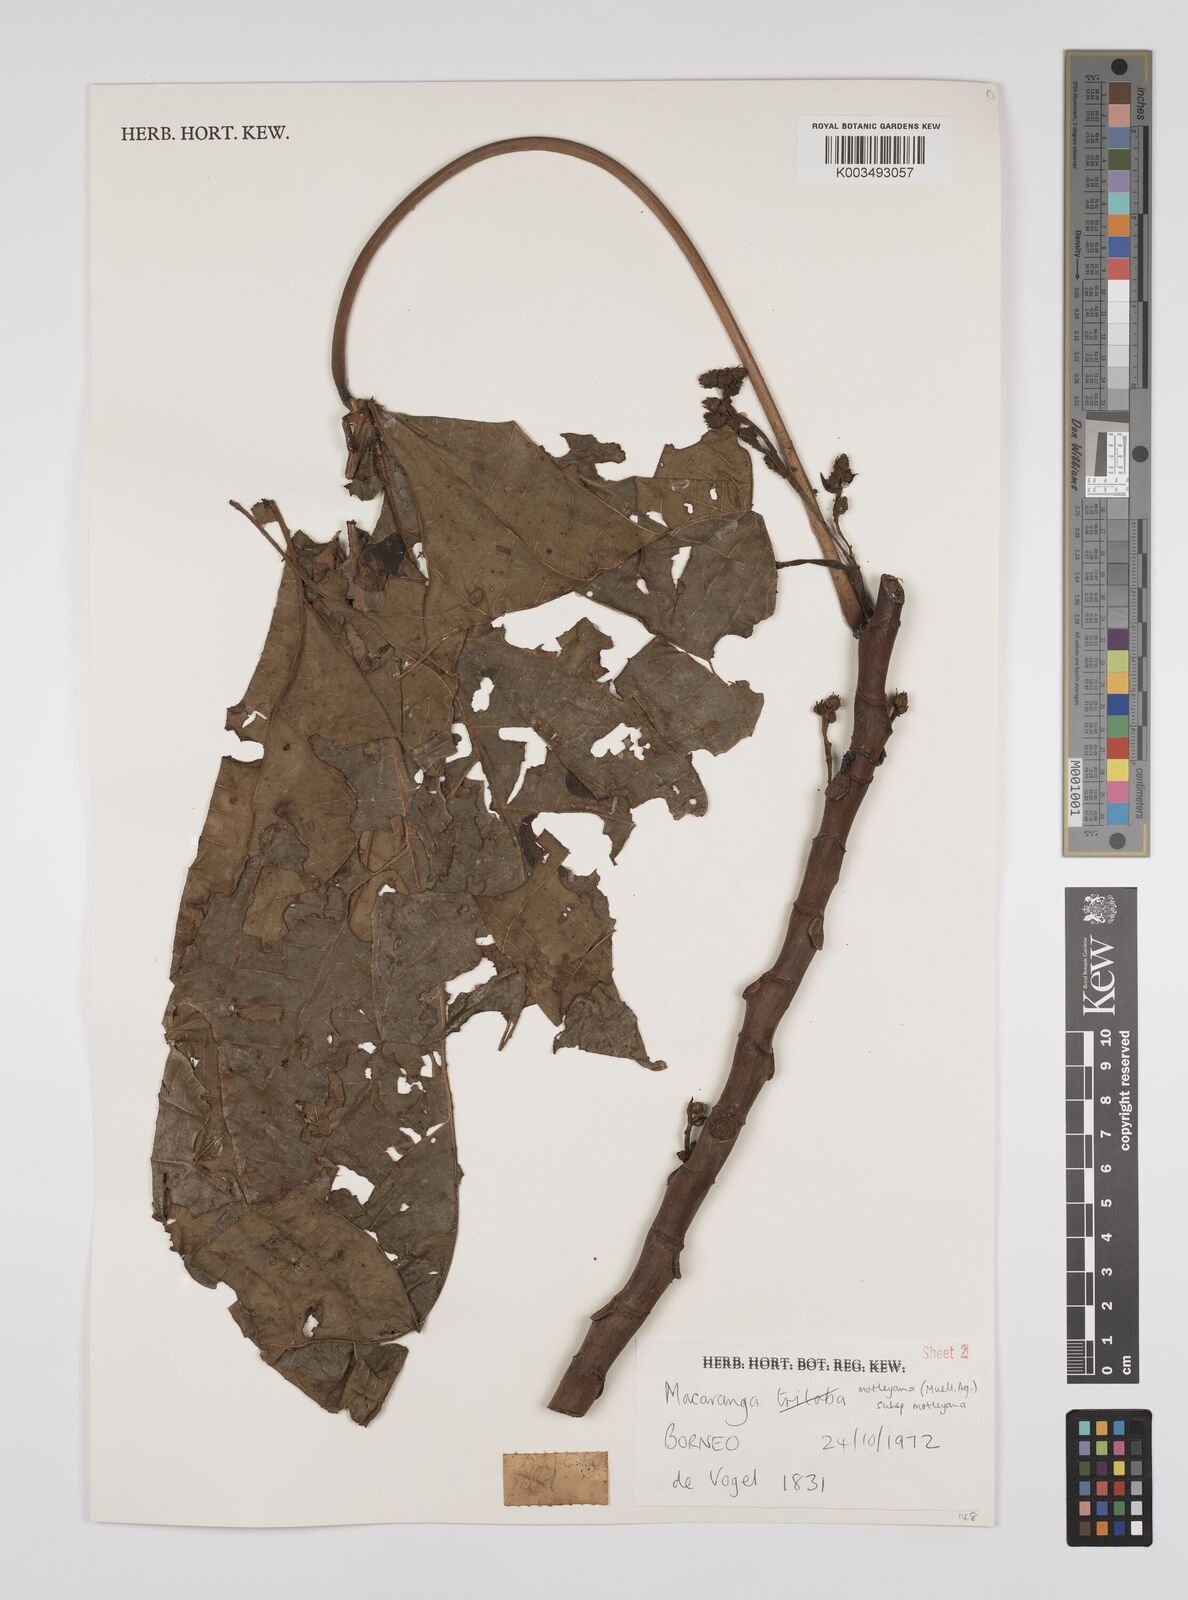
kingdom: Plantae
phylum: Tracheophyta
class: Magnoliopsida
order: Malpighiales
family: Euphorbiaceae
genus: Macaranga
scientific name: Macaranga motleyana
